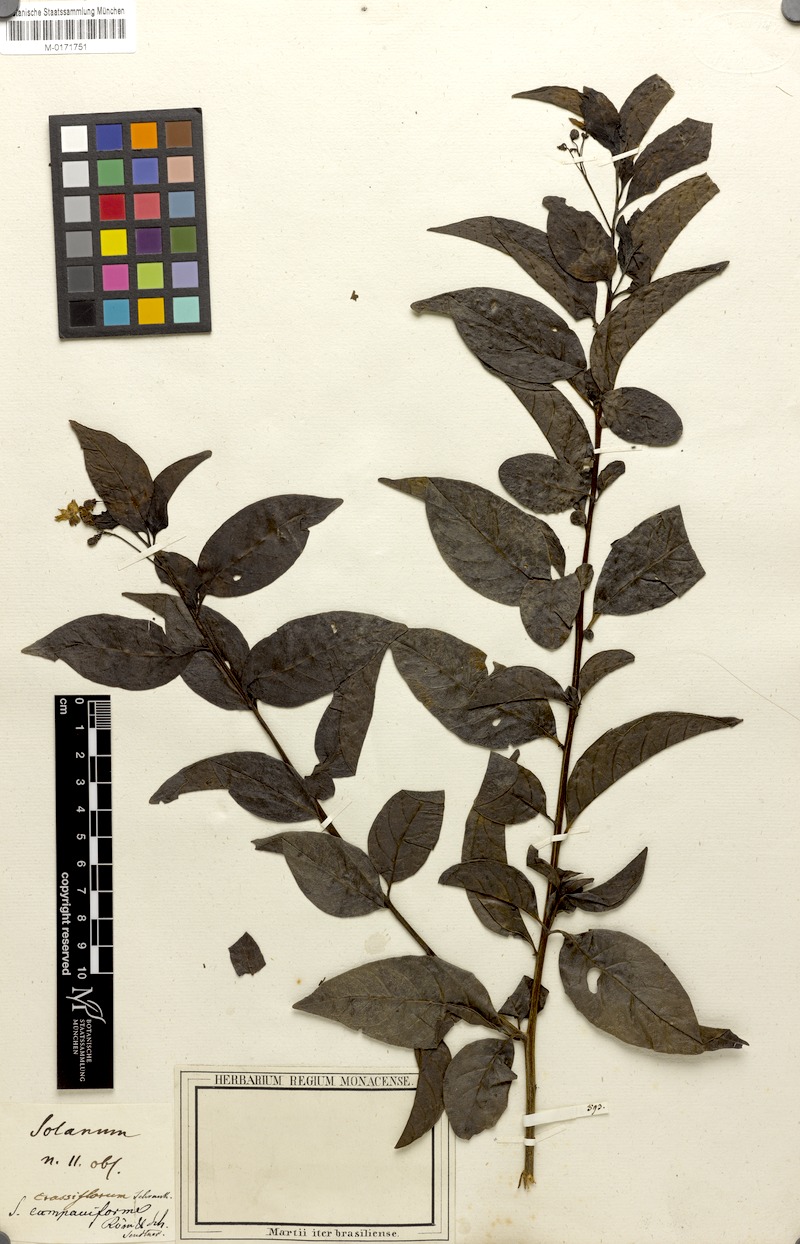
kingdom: Plantae
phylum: Tracheophyta
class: Magnoliopsida
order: Solanales
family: Solanaceae
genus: Solanum
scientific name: Solanum campaniforme
